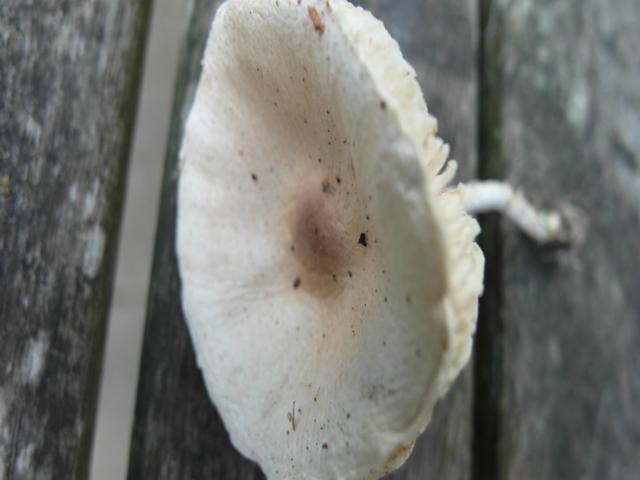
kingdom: Fungi
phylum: Basidiomycota
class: Agaricomycetes
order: Agaricales
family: Agaricaceae
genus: Lepiota
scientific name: Lepiota erminea
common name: hvid parasolhat
